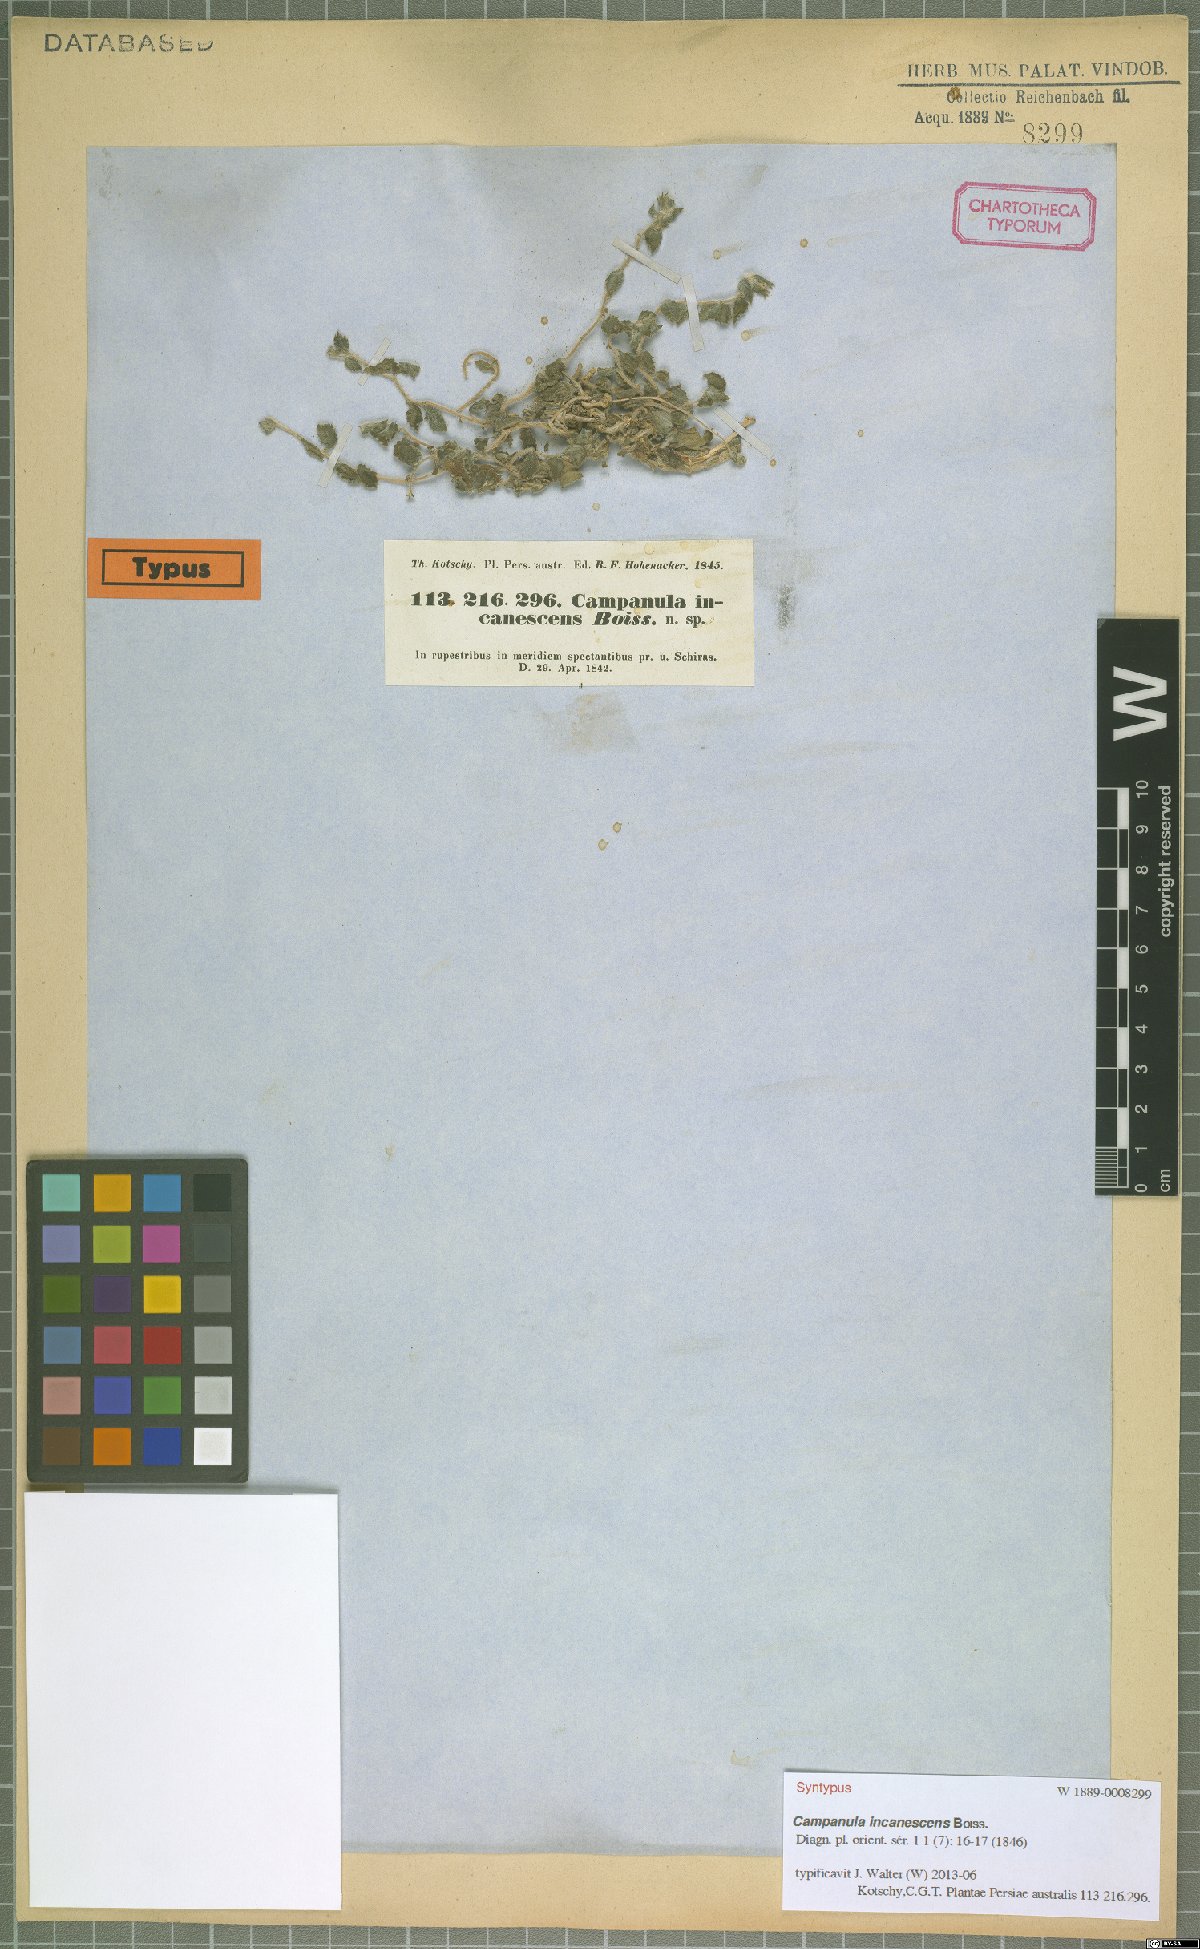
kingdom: Plantae
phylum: Tracheophyta
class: Magnoliopsida
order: Asterales
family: Campanulaceae
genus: Campanula
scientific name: Campanula incanescens
